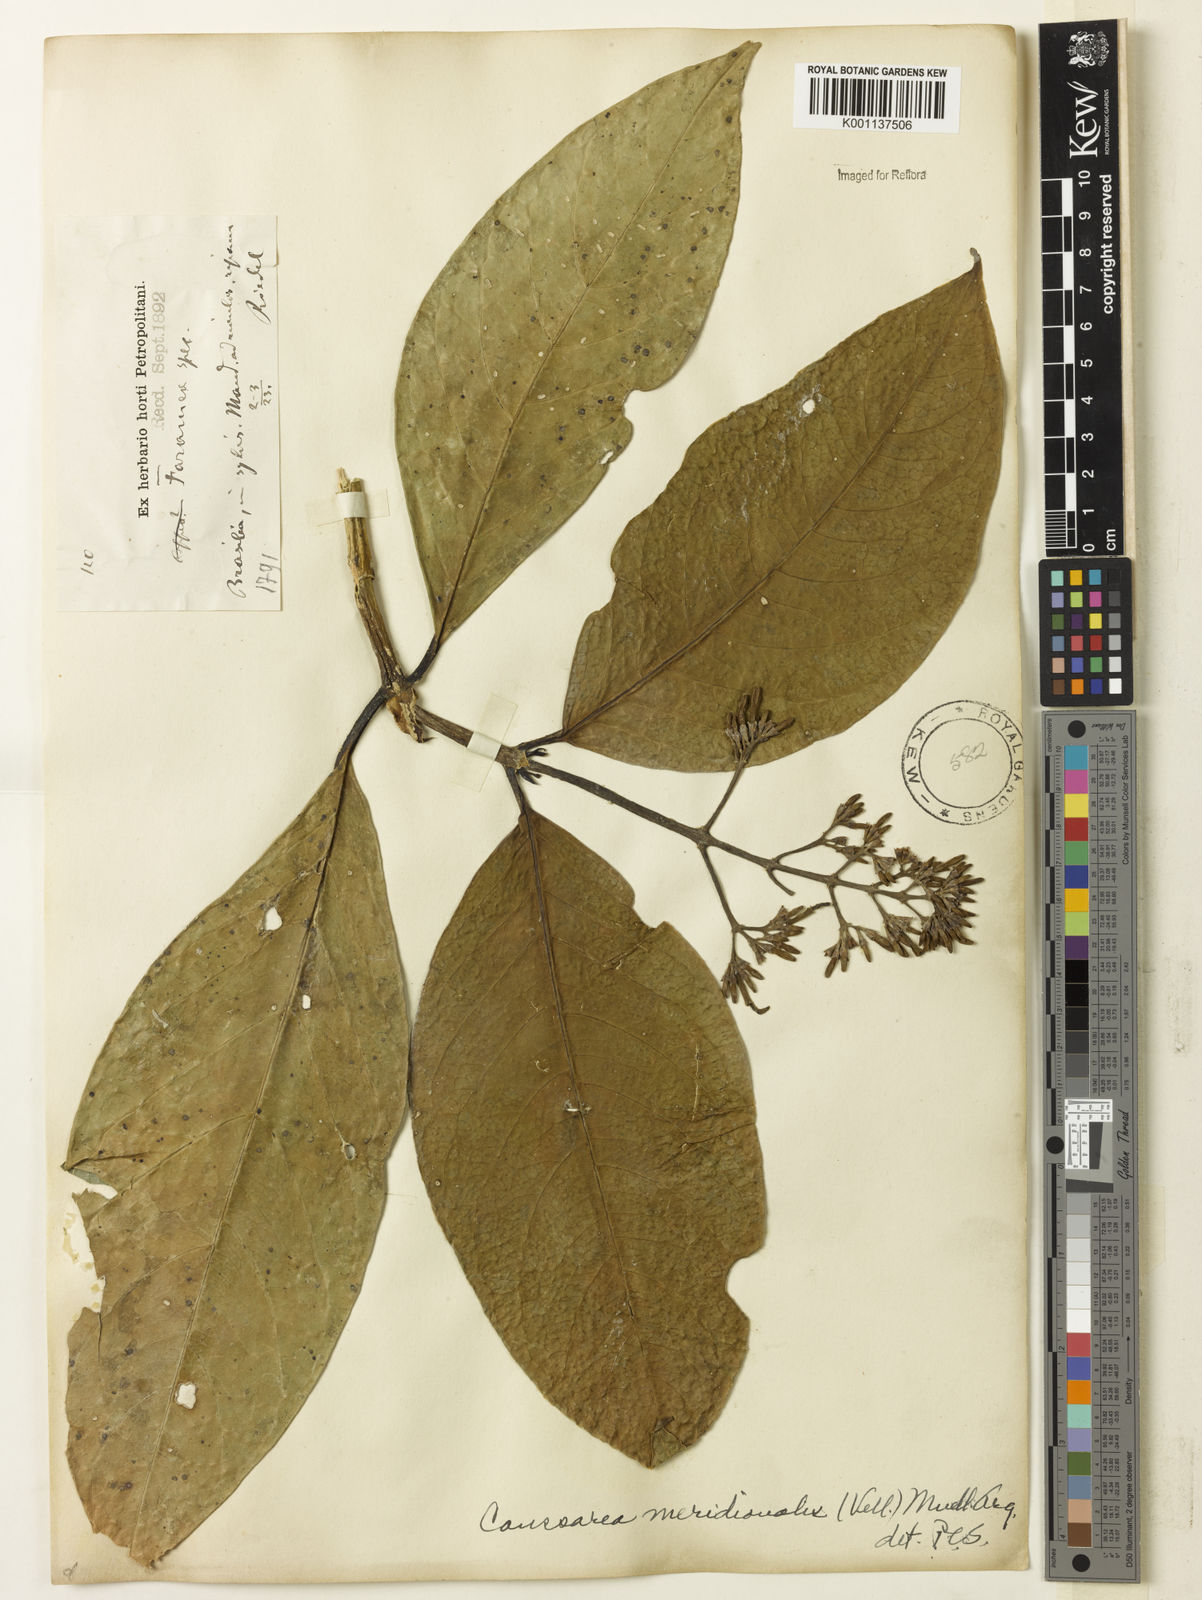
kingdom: Plantae
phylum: Tracheophyta
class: Magnoliopsida
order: Gentianales
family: Rubiaceae
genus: Coussarea
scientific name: Coussarea
